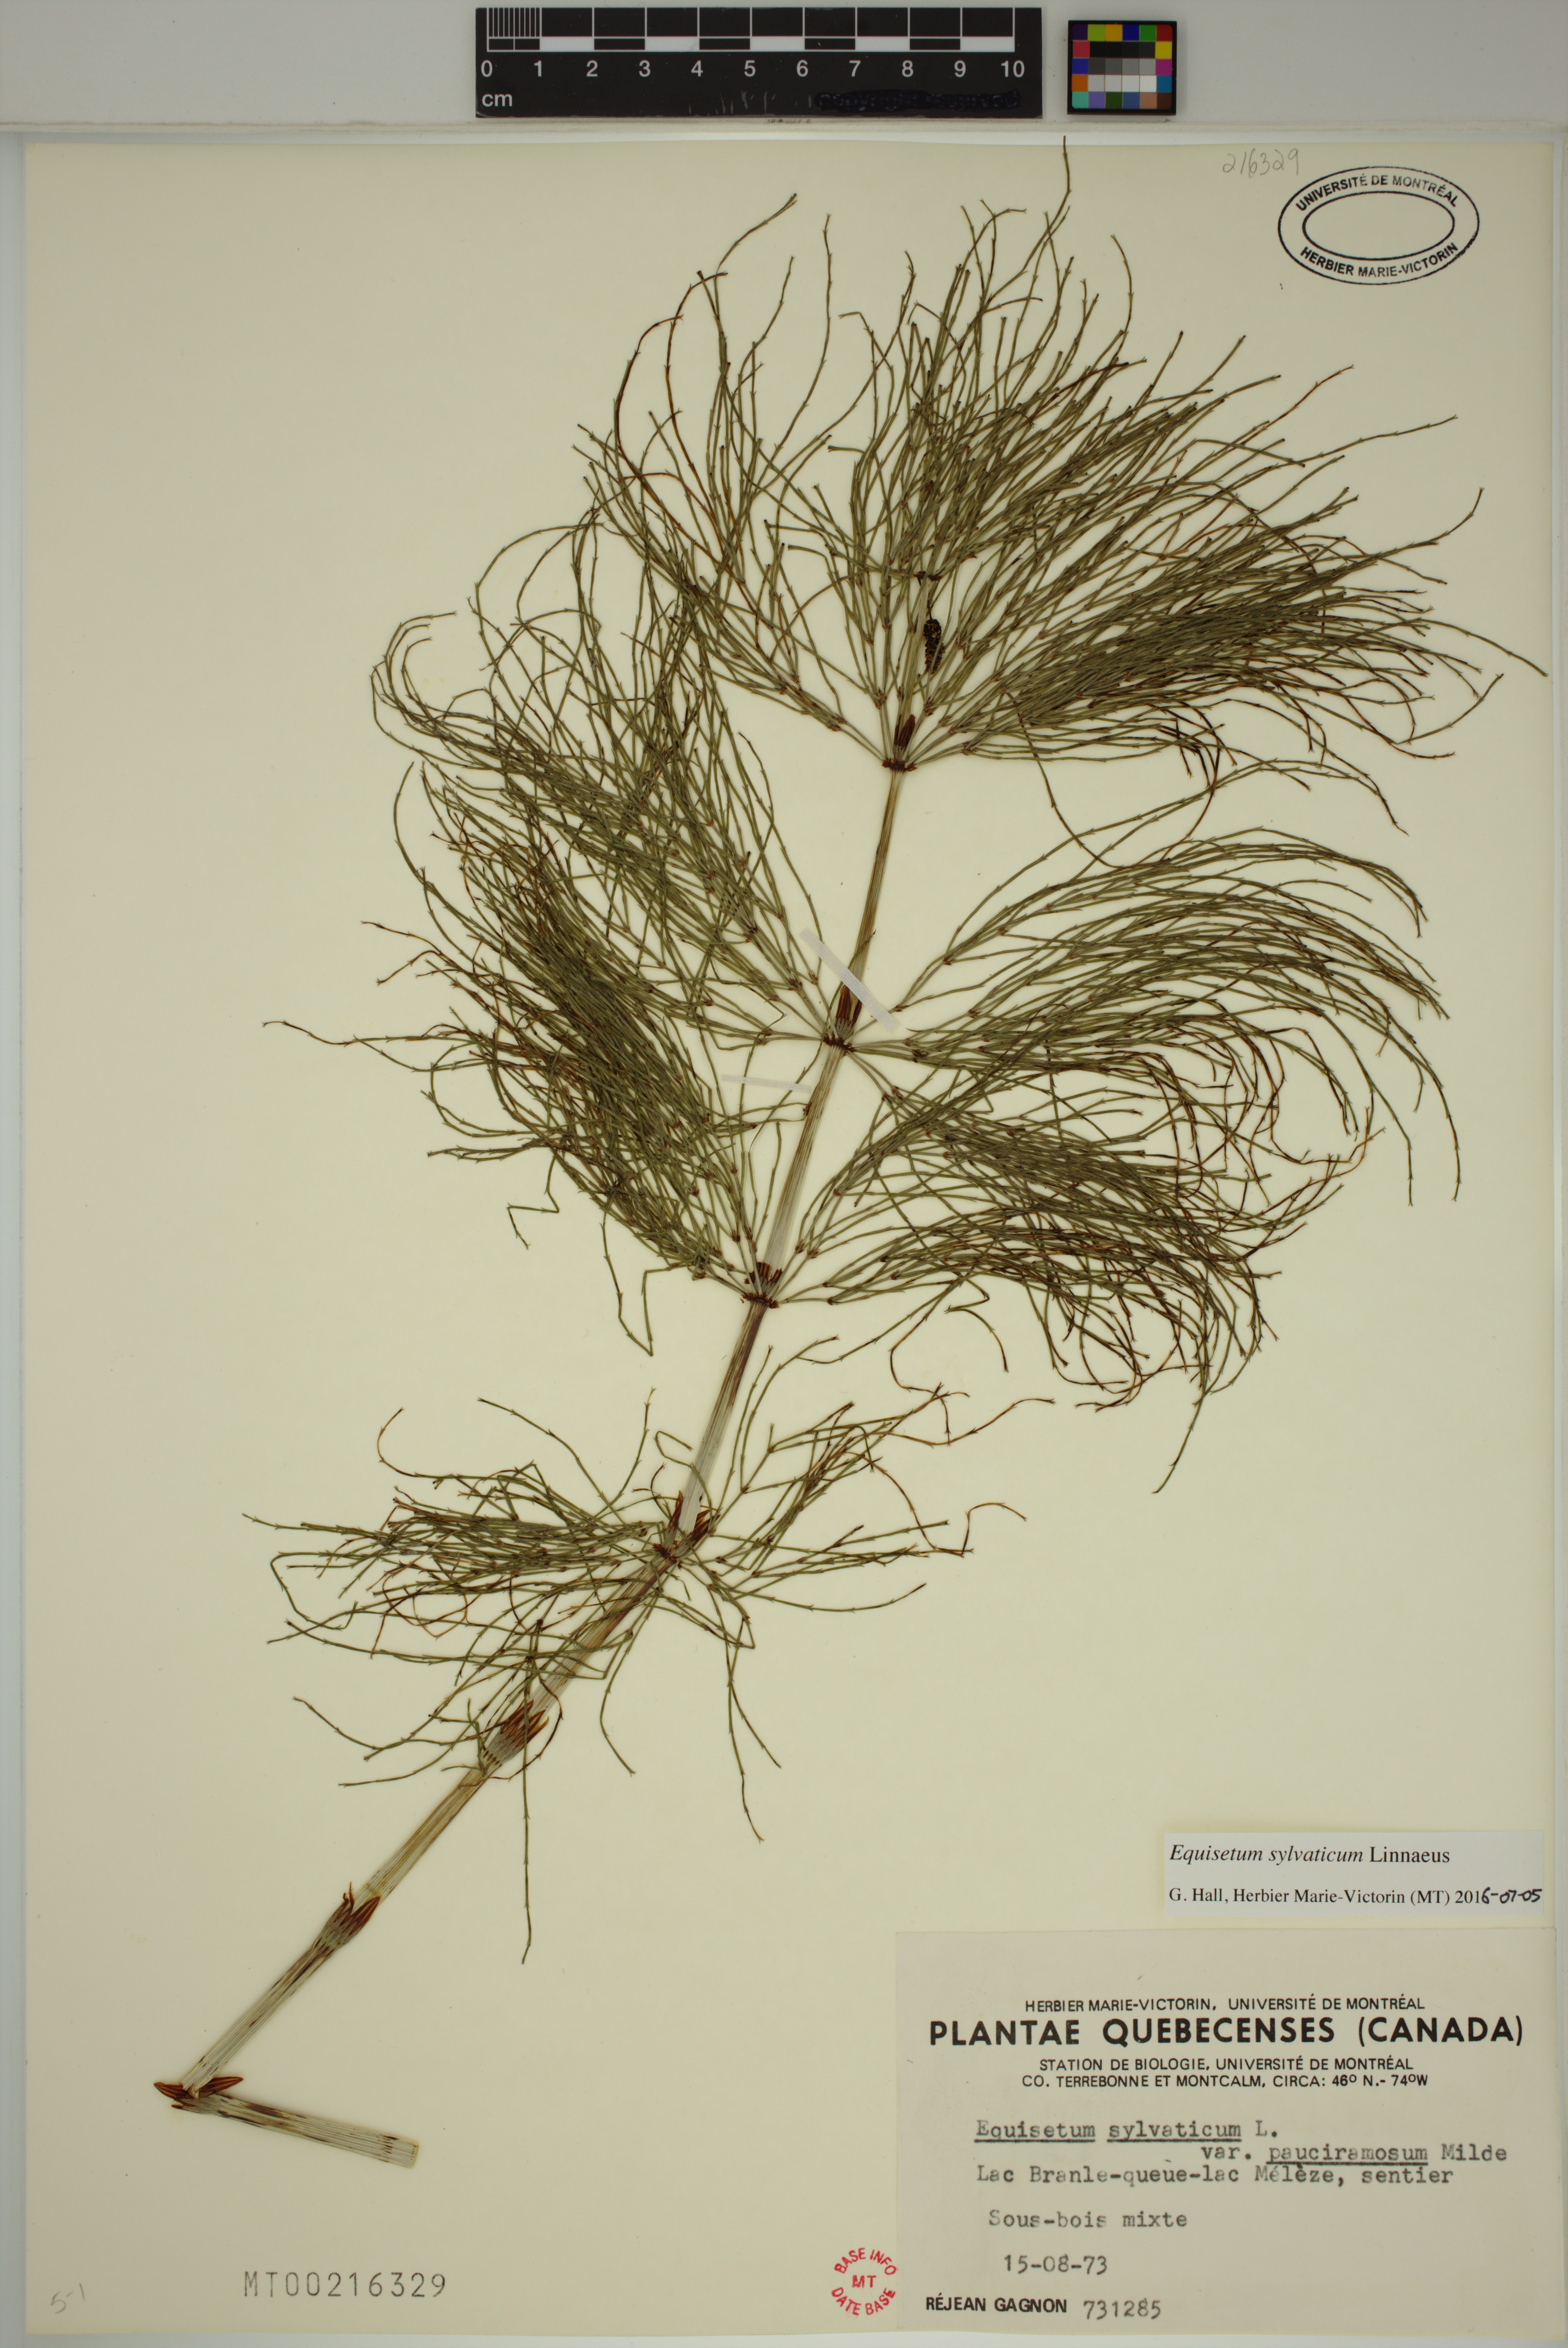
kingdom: Plantae
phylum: Tracheophyta
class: Polypodiopsida
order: Equisetales
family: Equisetaceae
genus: Equisetum
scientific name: Equisetum sylvaticum
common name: Wood horsetail
